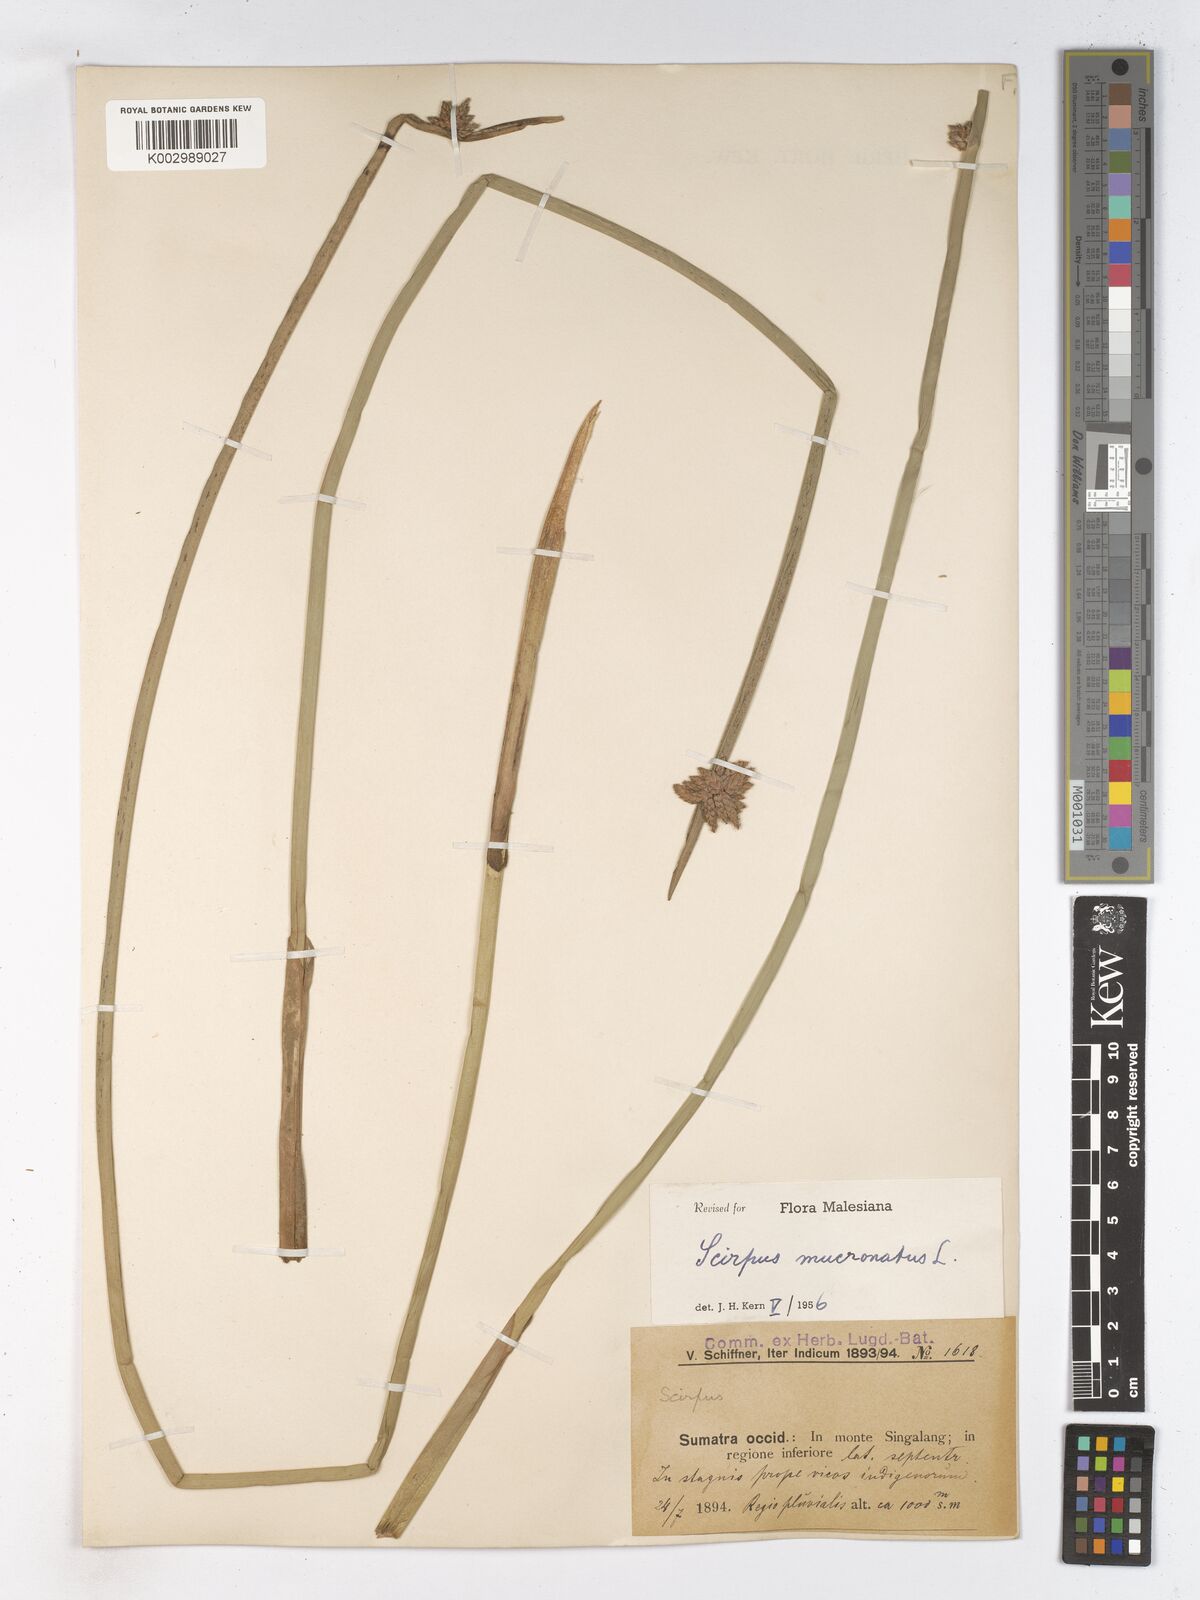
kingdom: Plantae
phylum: Tracheophyta
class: Liliopsida
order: Poales
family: Cyperaceae
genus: Schoenoplectiella
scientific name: Schoenoplectiella mucronata
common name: Bog bulrush
